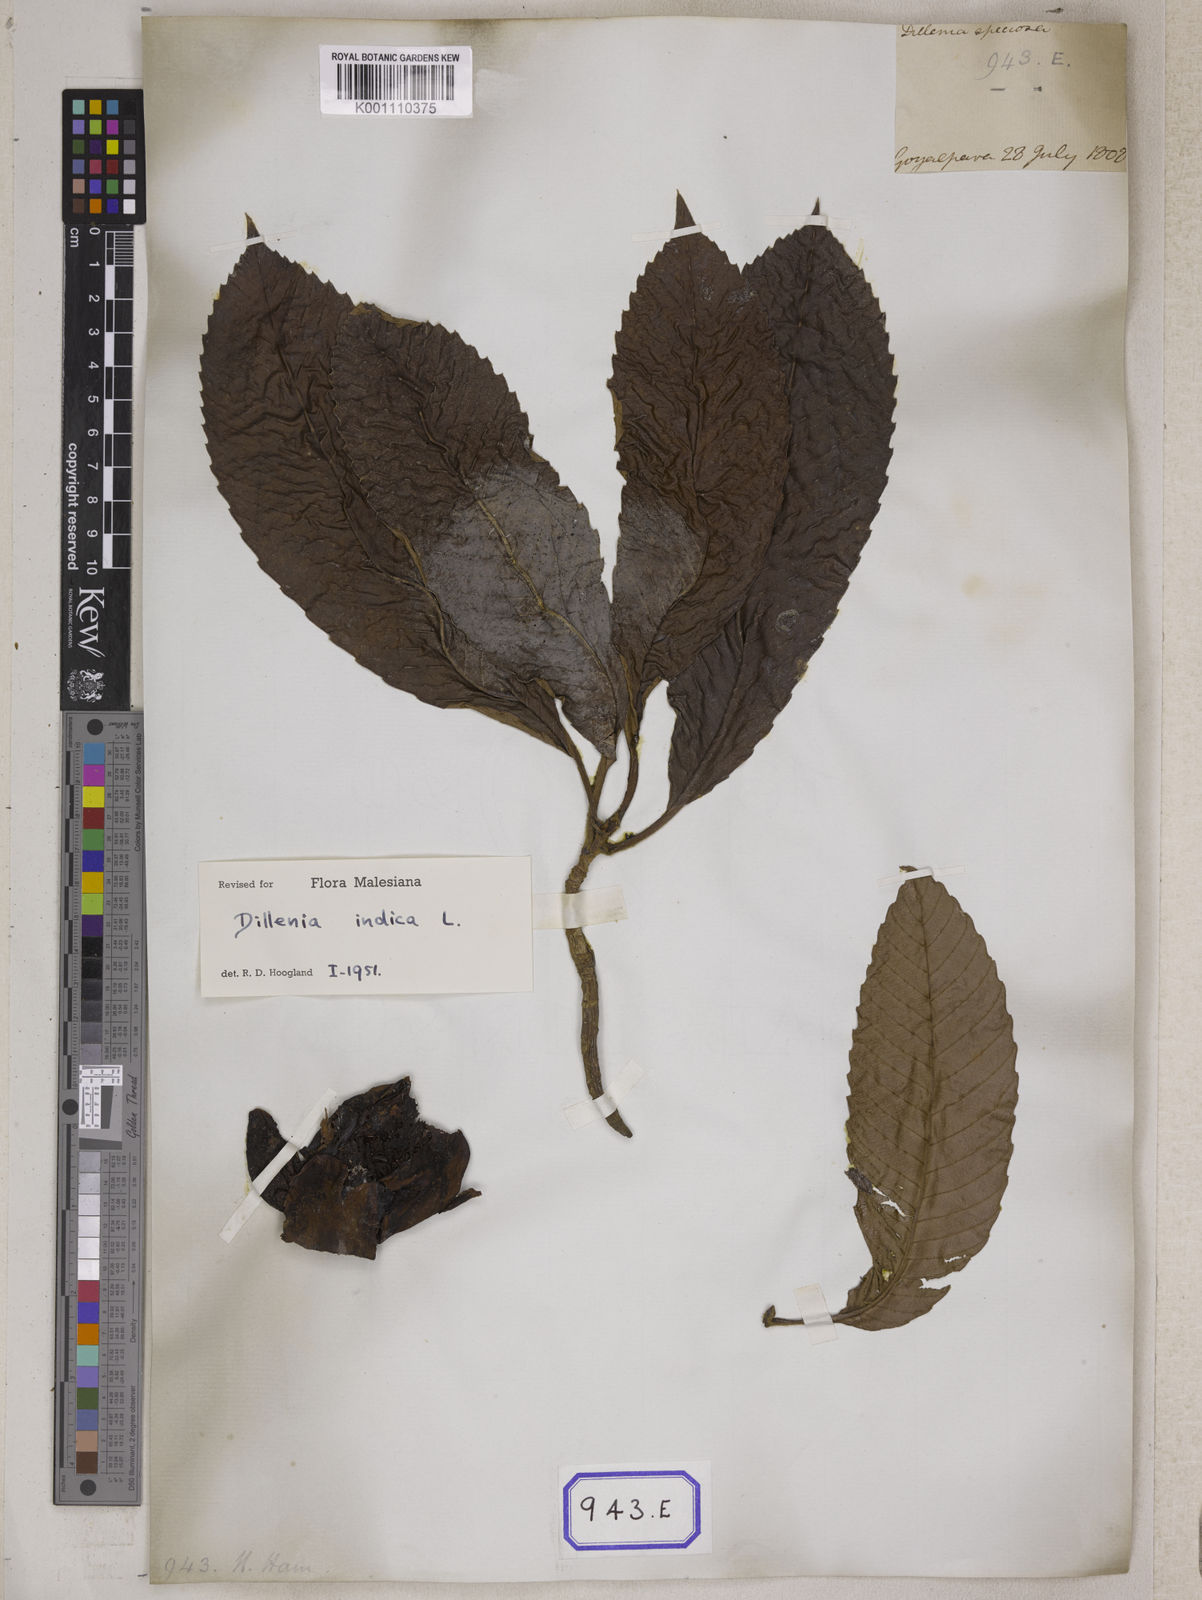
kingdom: Plantae
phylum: Tracheophyta
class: Magnoliopsida
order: Dilleniales
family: Dilleniaceae
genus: Dillenia
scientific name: Dillenia indica
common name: Elephant apple
